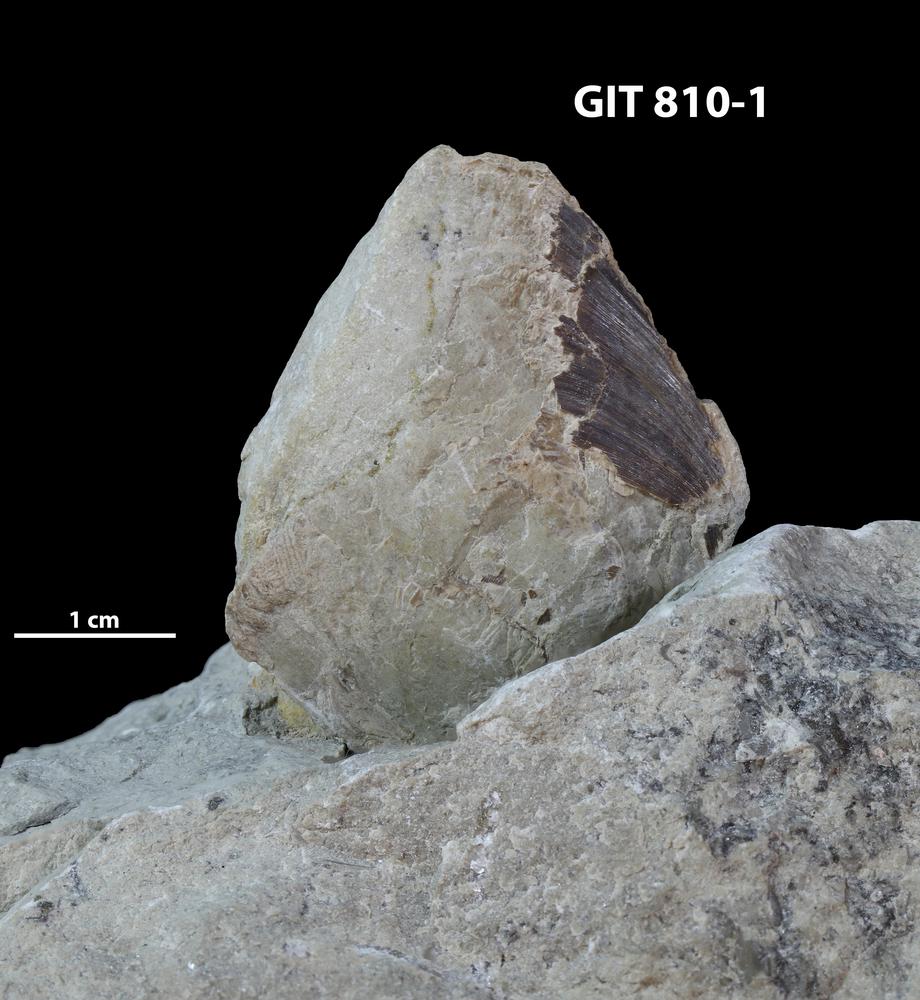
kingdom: Animalia
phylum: Brachiopoda
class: Lingulata
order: Lingulida
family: Pseudolingulidae
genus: Pseudolingula
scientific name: Pseudolingula Crania quadrata
